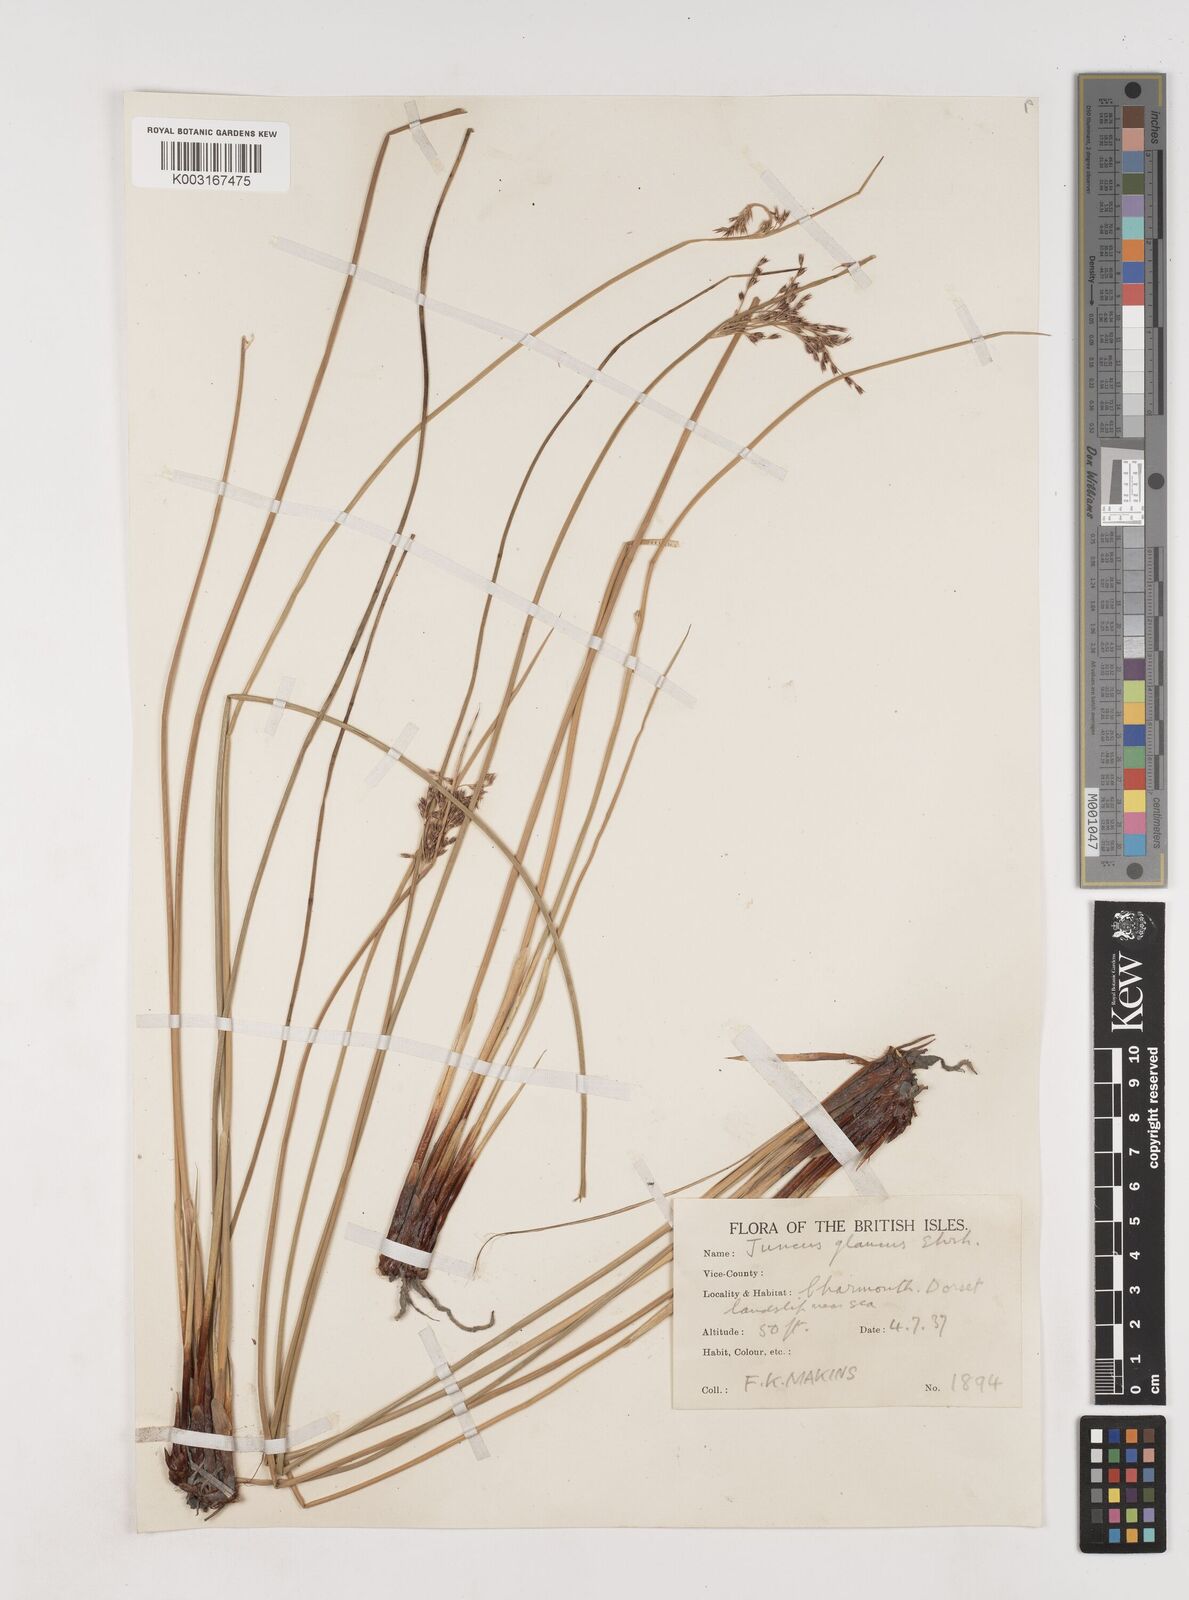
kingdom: Plantae
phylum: Tracheophyta
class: Liliopsida
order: Poales
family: Juncaceae
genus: Juncus
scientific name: Juncus inflexus
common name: Hard rush
